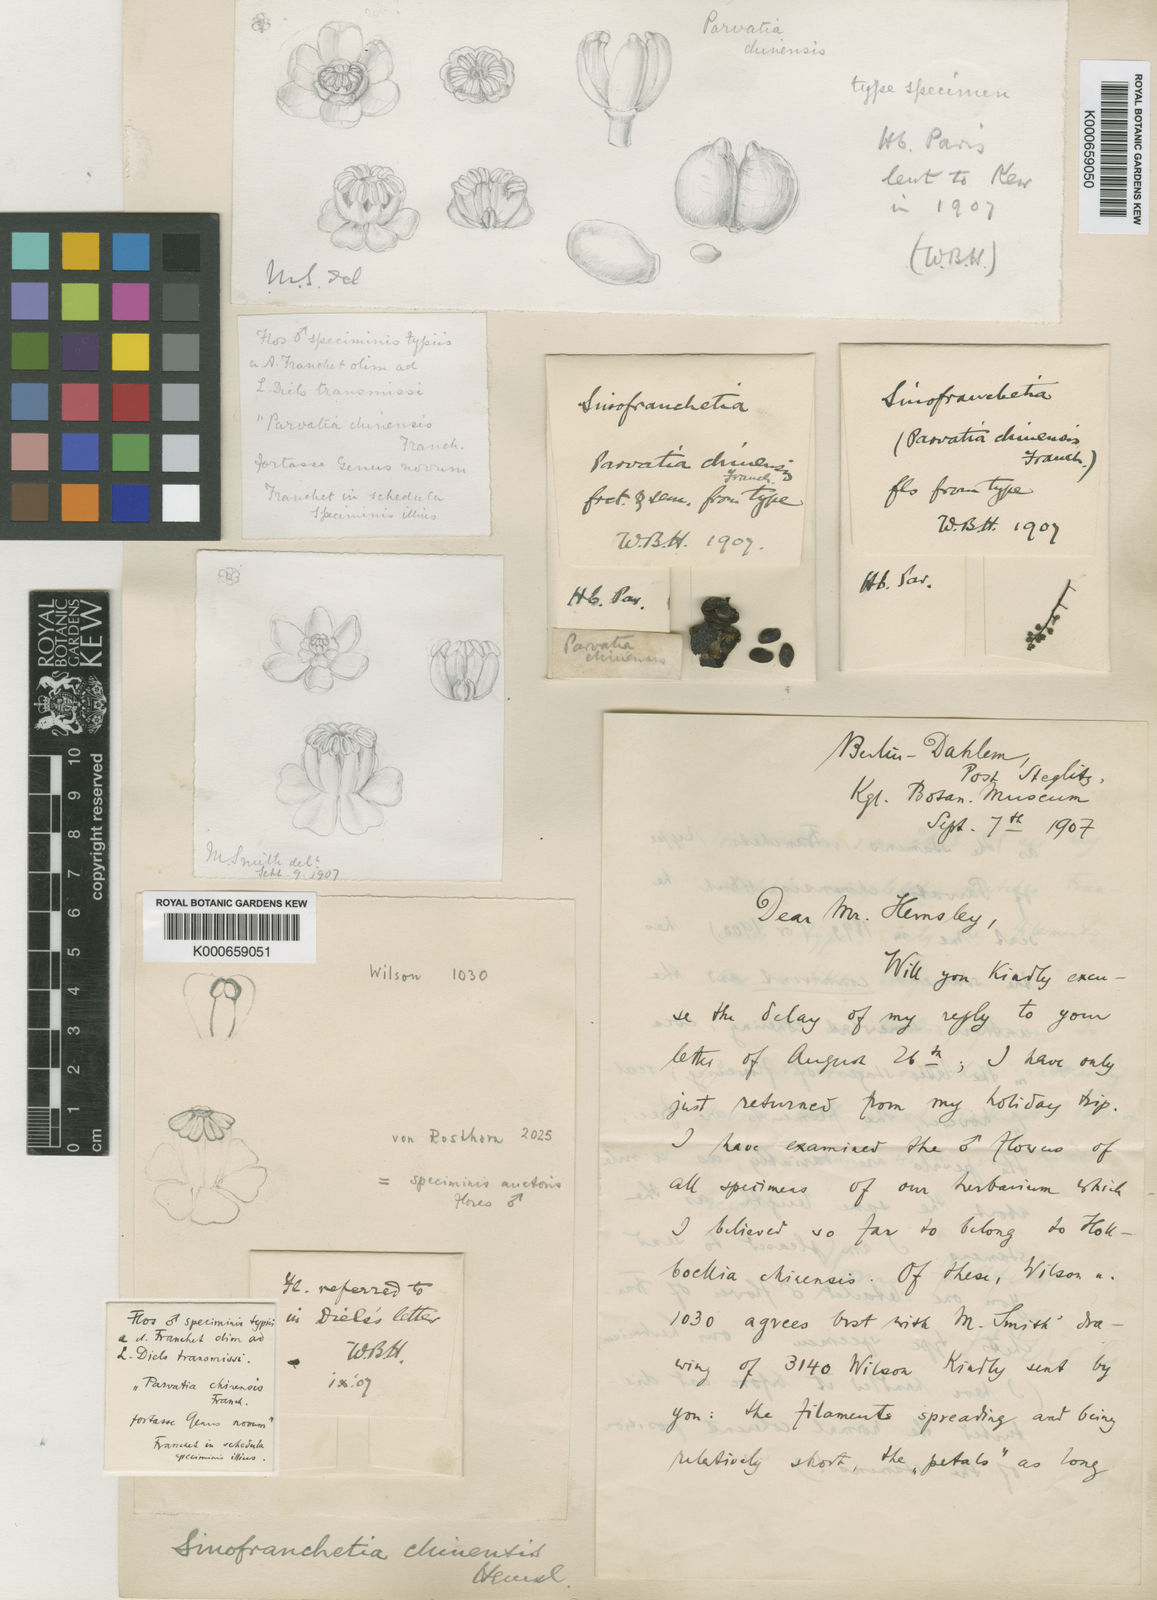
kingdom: Plantae
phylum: Tracheophyta
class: Magnoliopsida
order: Ranunculales
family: Lardizabalaceae
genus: Sinofranchetia
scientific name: Sinofranchetia chinensis
